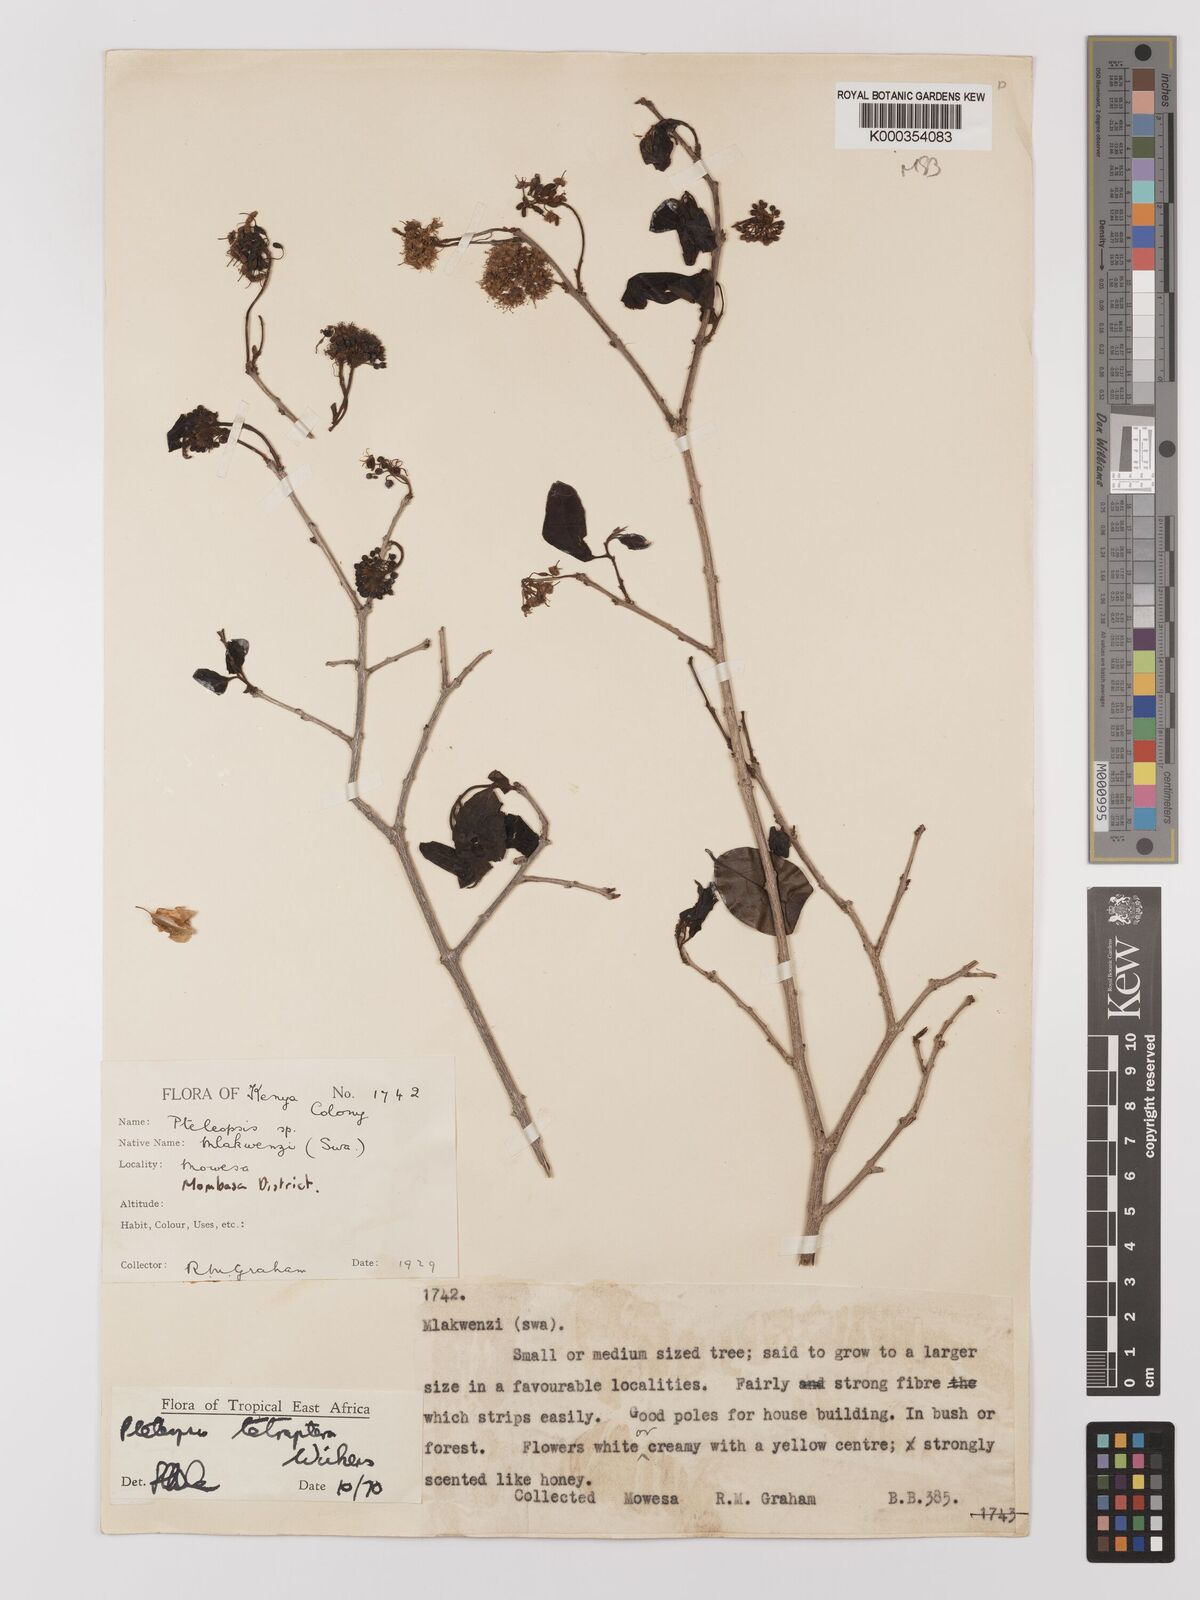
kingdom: Plantae
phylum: Tracheophyta
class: Magnoliopsida
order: Myrtales
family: Combretaceae
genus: Terminalia
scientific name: Terminalia tetraptera
